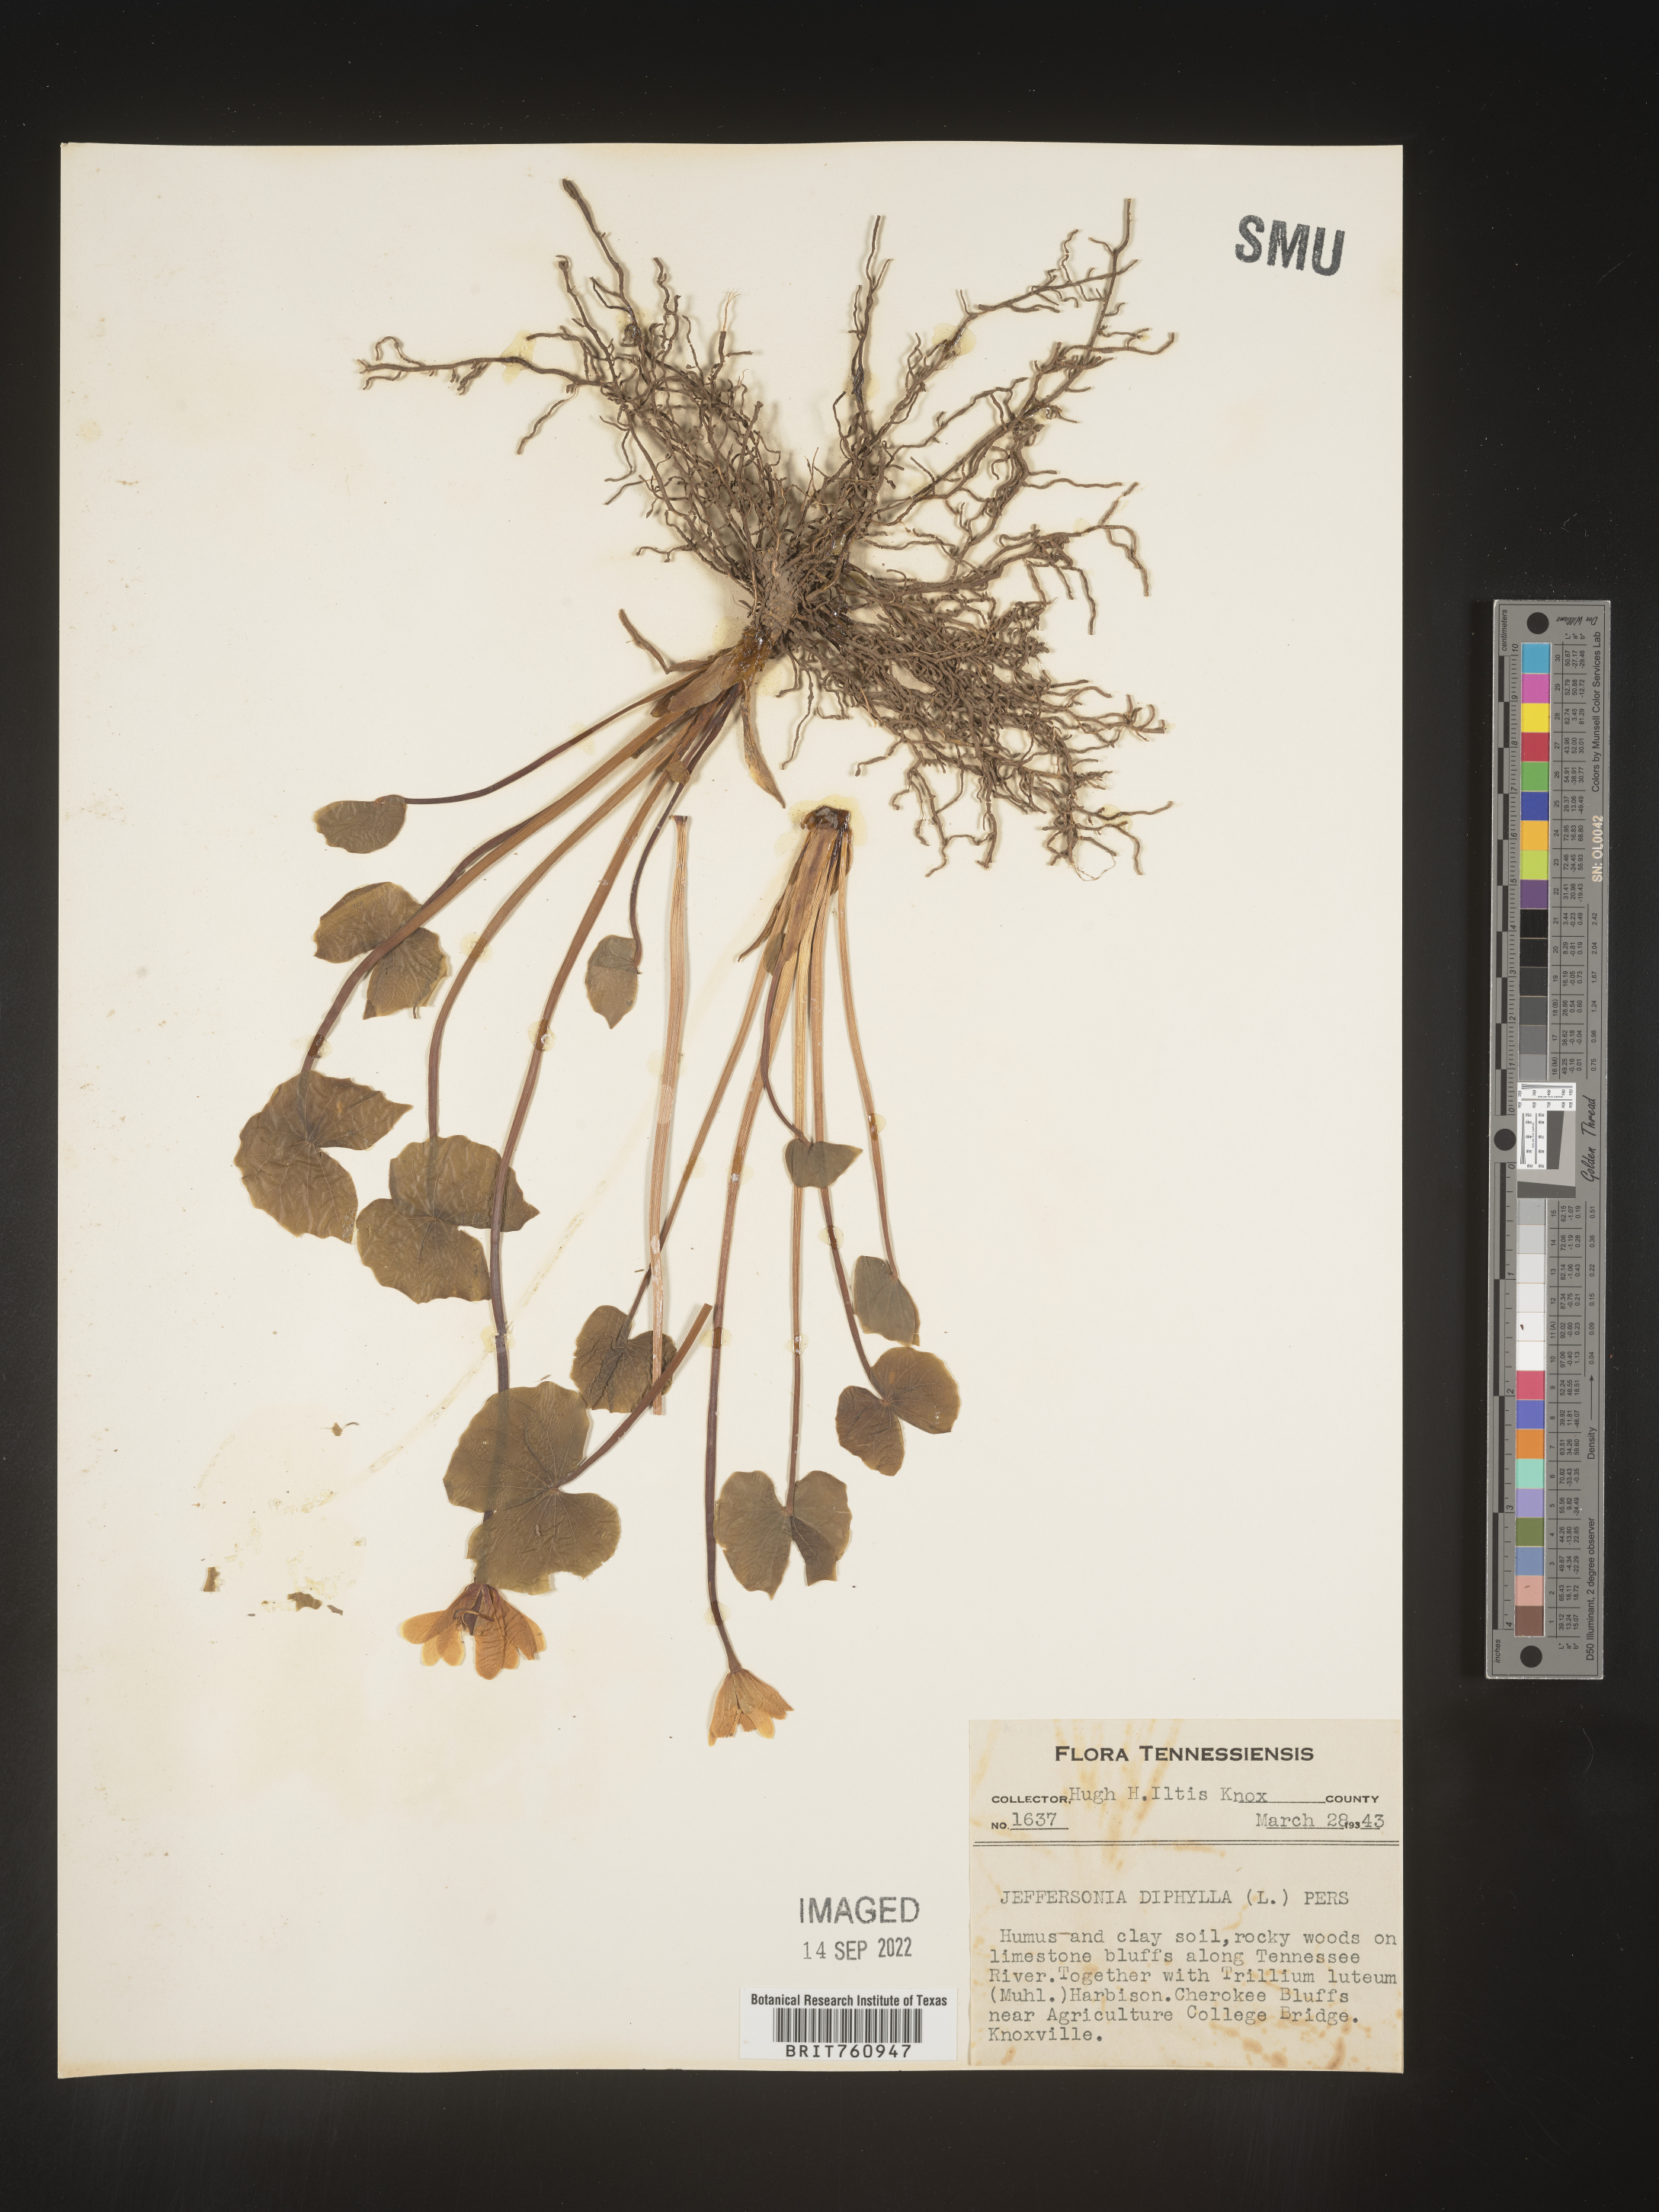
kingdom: Plantae
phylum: Tracheophyta
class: Magnoliopsida
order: Ranunculales
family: Berberidaceae
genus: Jeffersonia
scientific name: Jeffersonia
